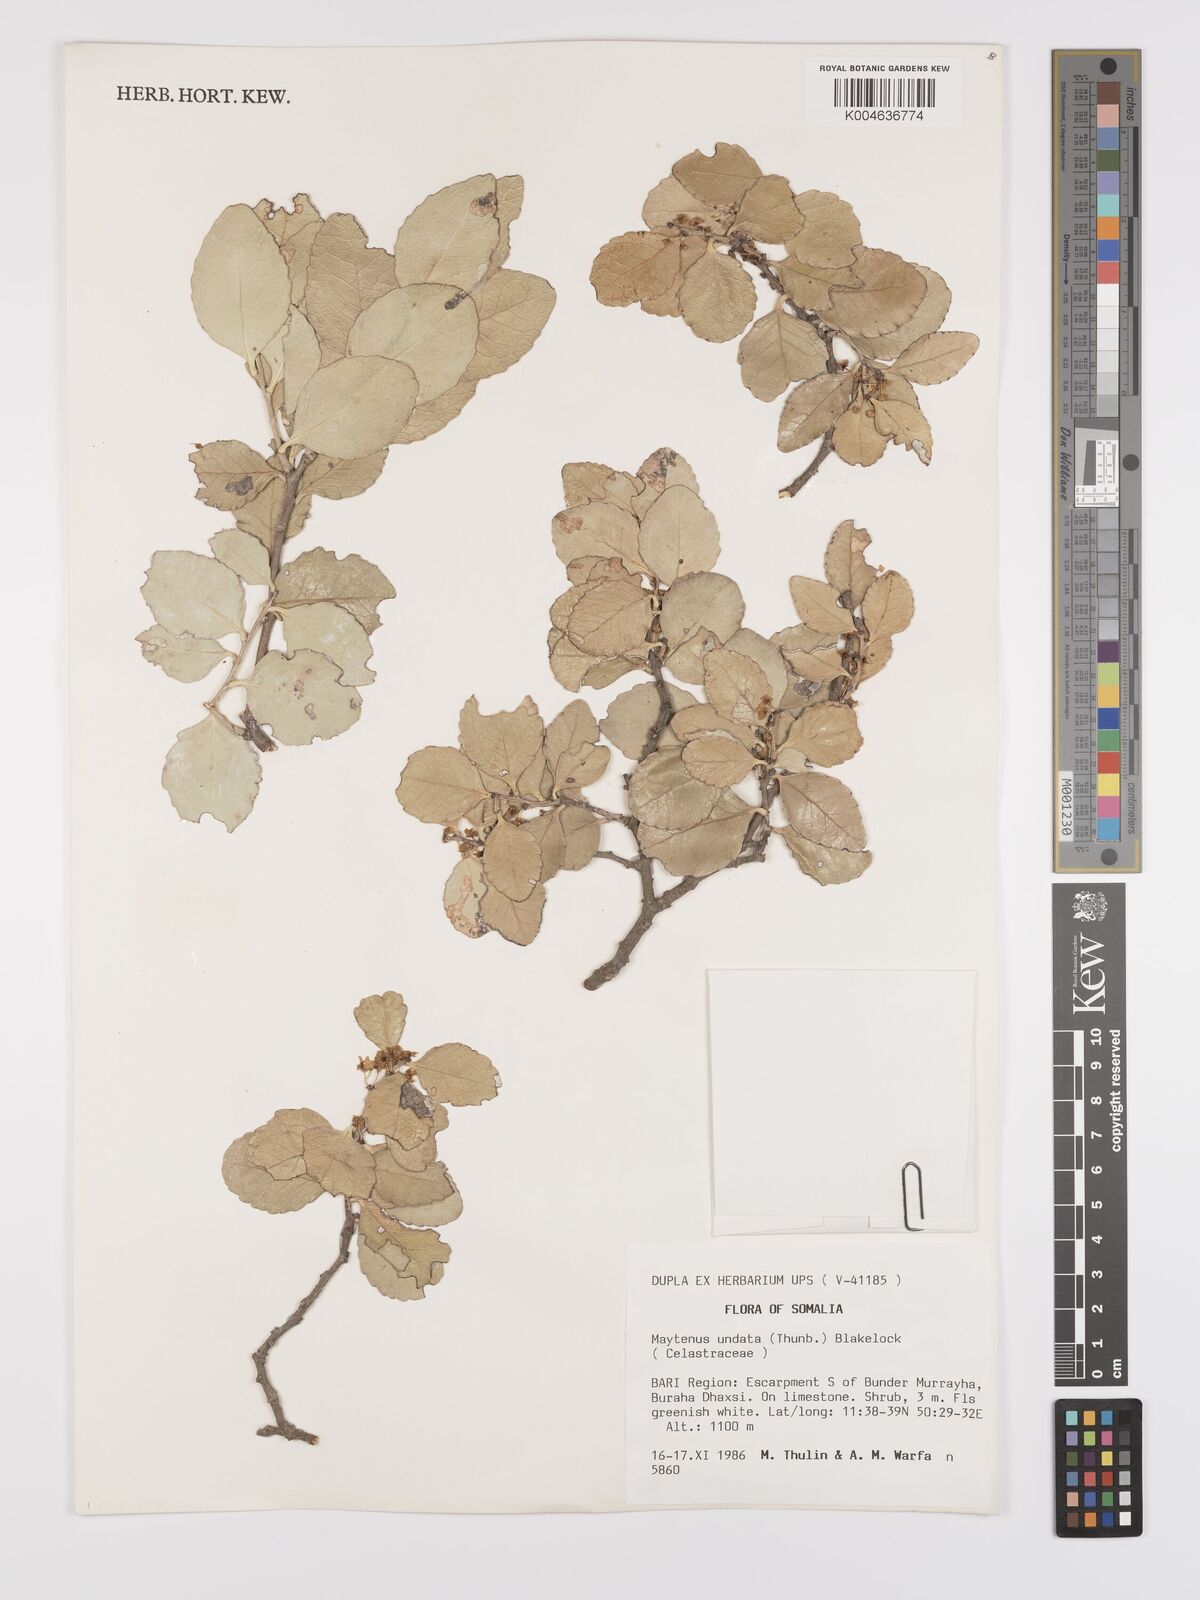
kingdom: Plantae
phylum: Tracheophyta
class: Magnoliopsida
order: Celastrales
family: Celastraceae
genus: Gymnosporia
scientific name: Gymnosporia undata
